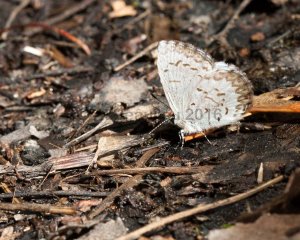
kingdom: Animalia
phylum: Arthropoda
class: Insecta
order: Lepidoptera
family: Lycaenidae
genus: Celastrina
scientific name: Celastrina lucia
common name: Northern Spring Azure
